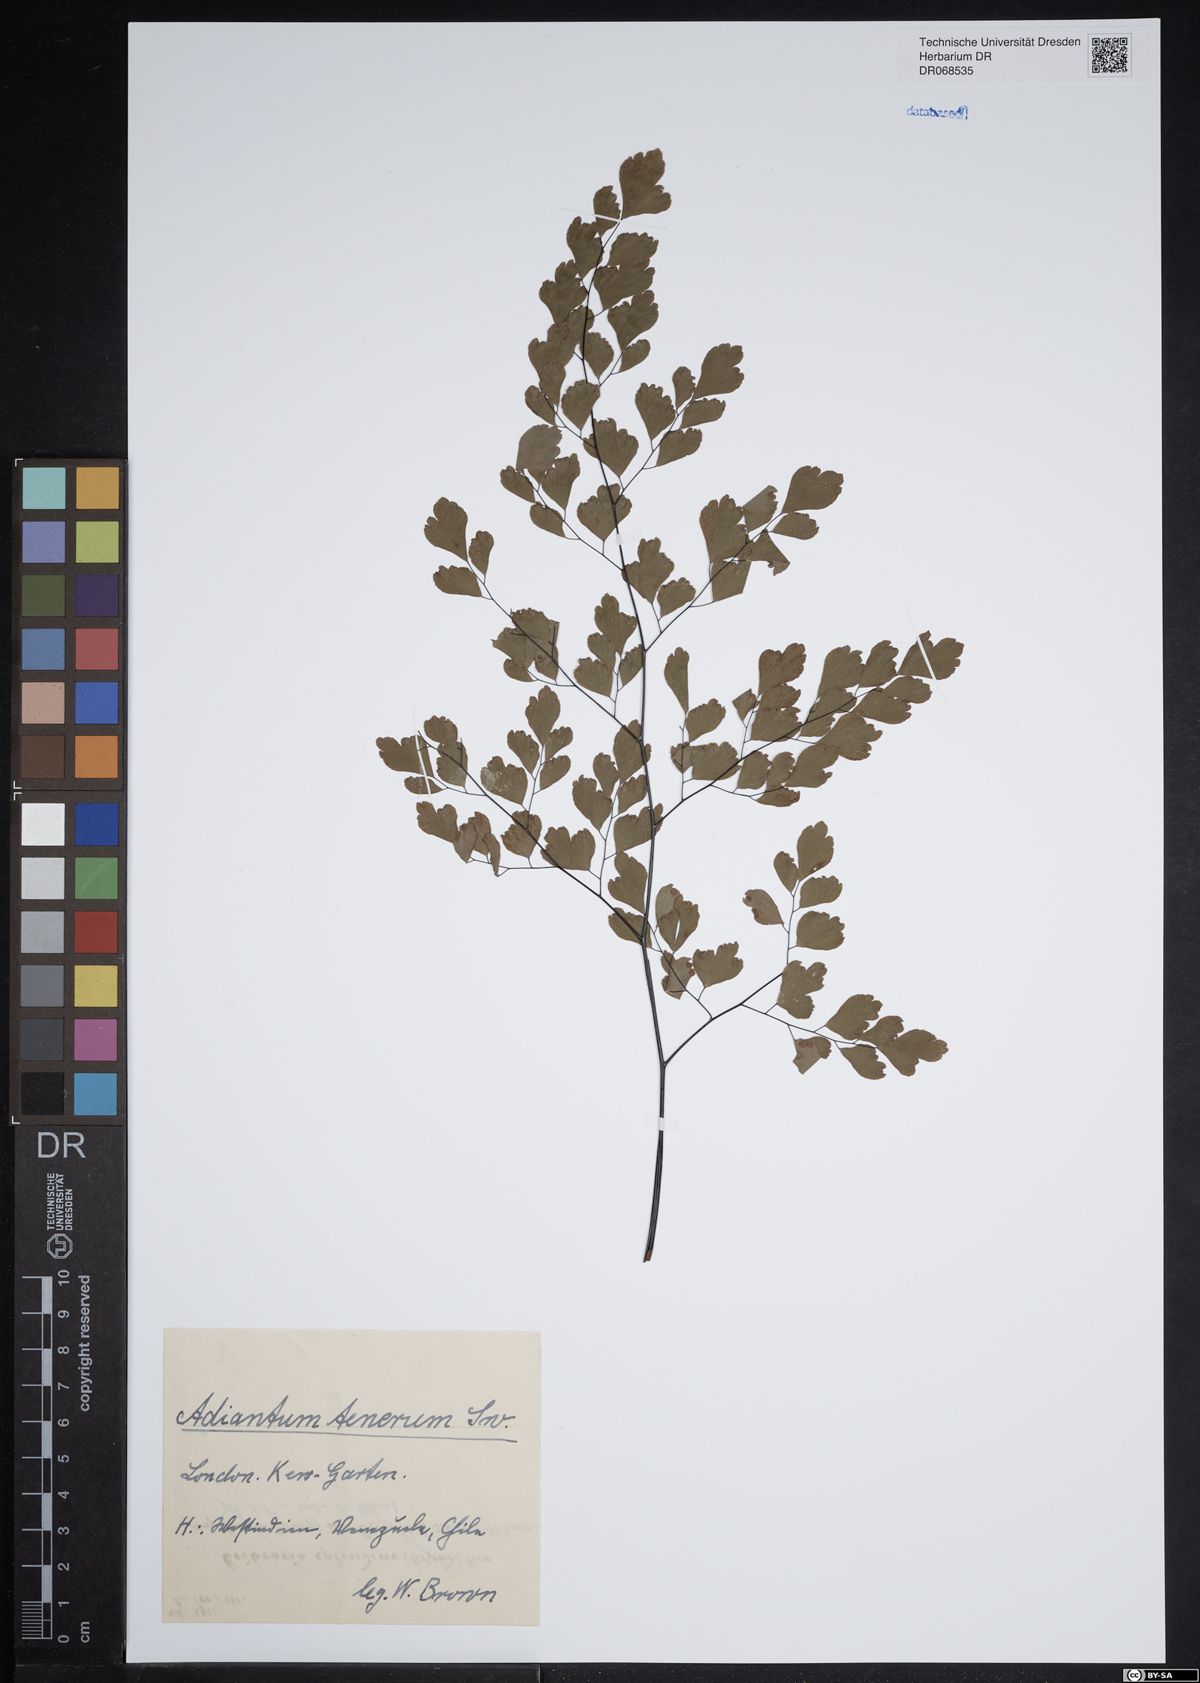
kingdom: Plantae
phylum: Tracheophyta
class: Polypodiopsida
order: Polypodiales
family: Pteridaceae
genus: Adiantum
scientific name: Adiantum tenerum
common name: Fan maidenhair
